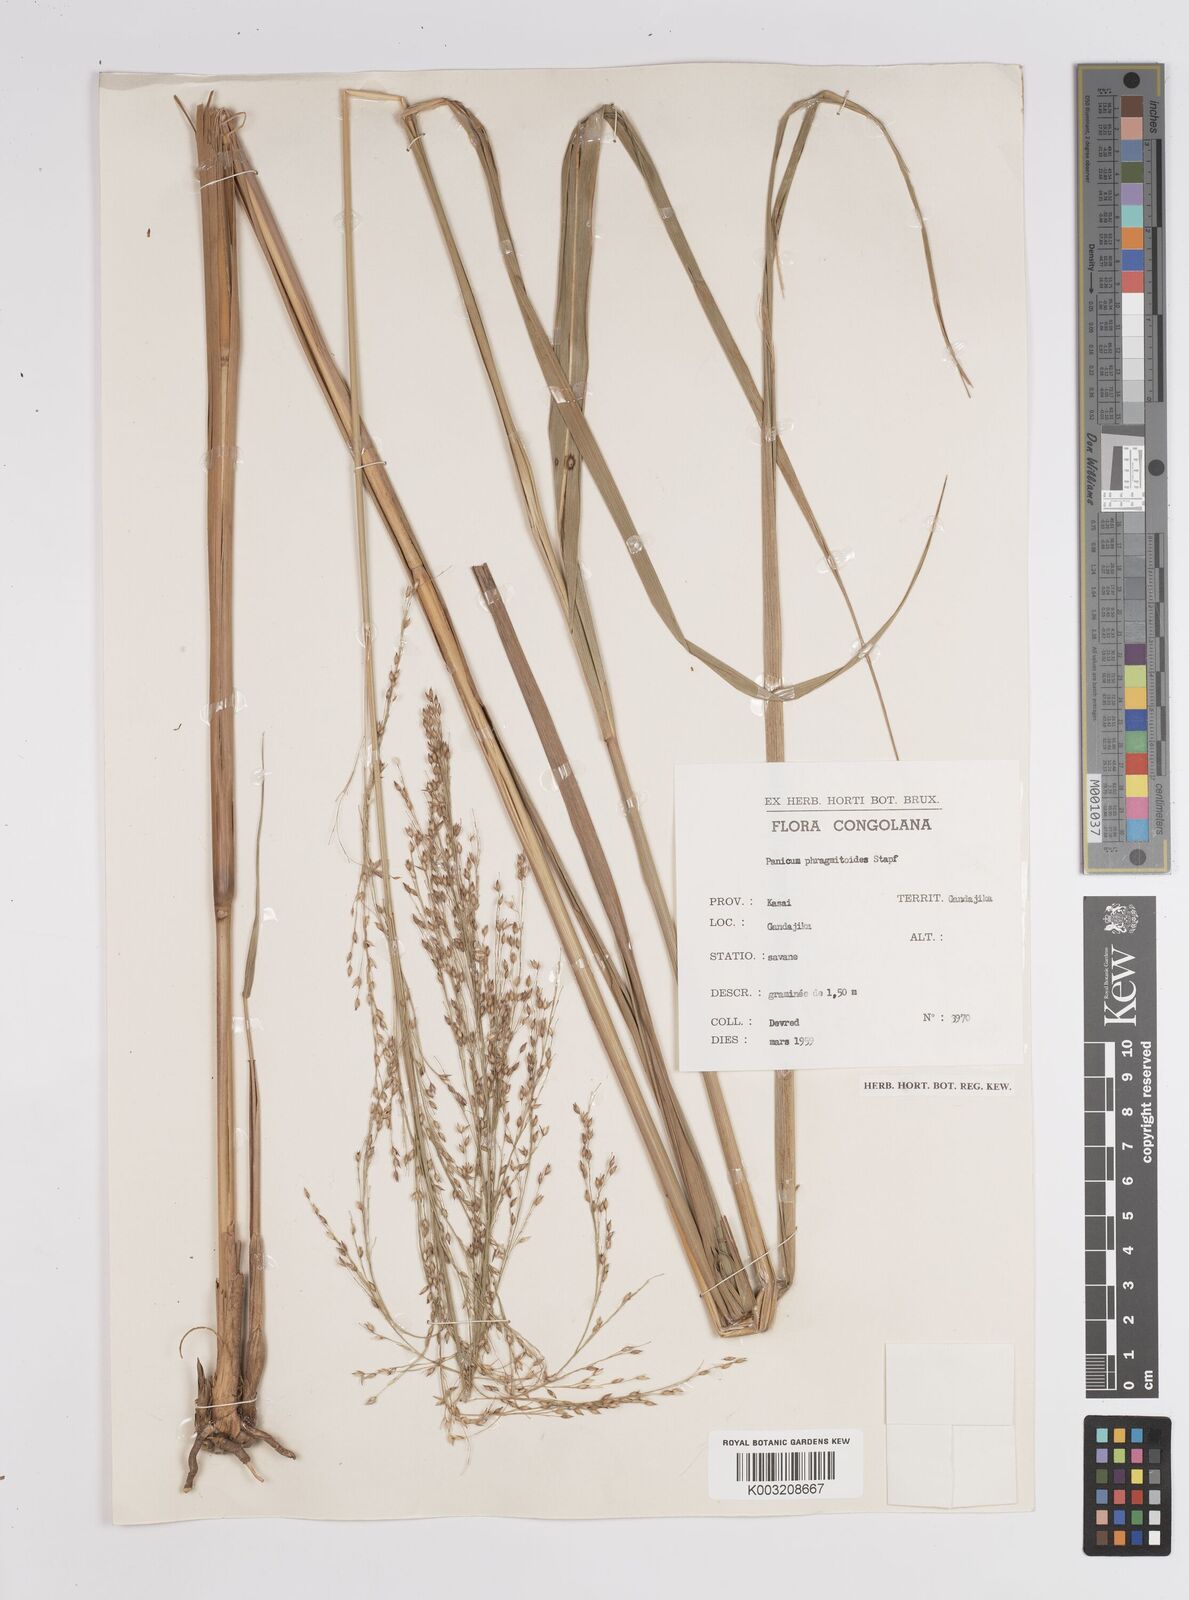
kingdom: Plantae
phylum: Tracheophyta
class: Liliopsida
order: Poales
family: Poaceae
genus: Panicum
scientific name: Panicum phragmitoides
